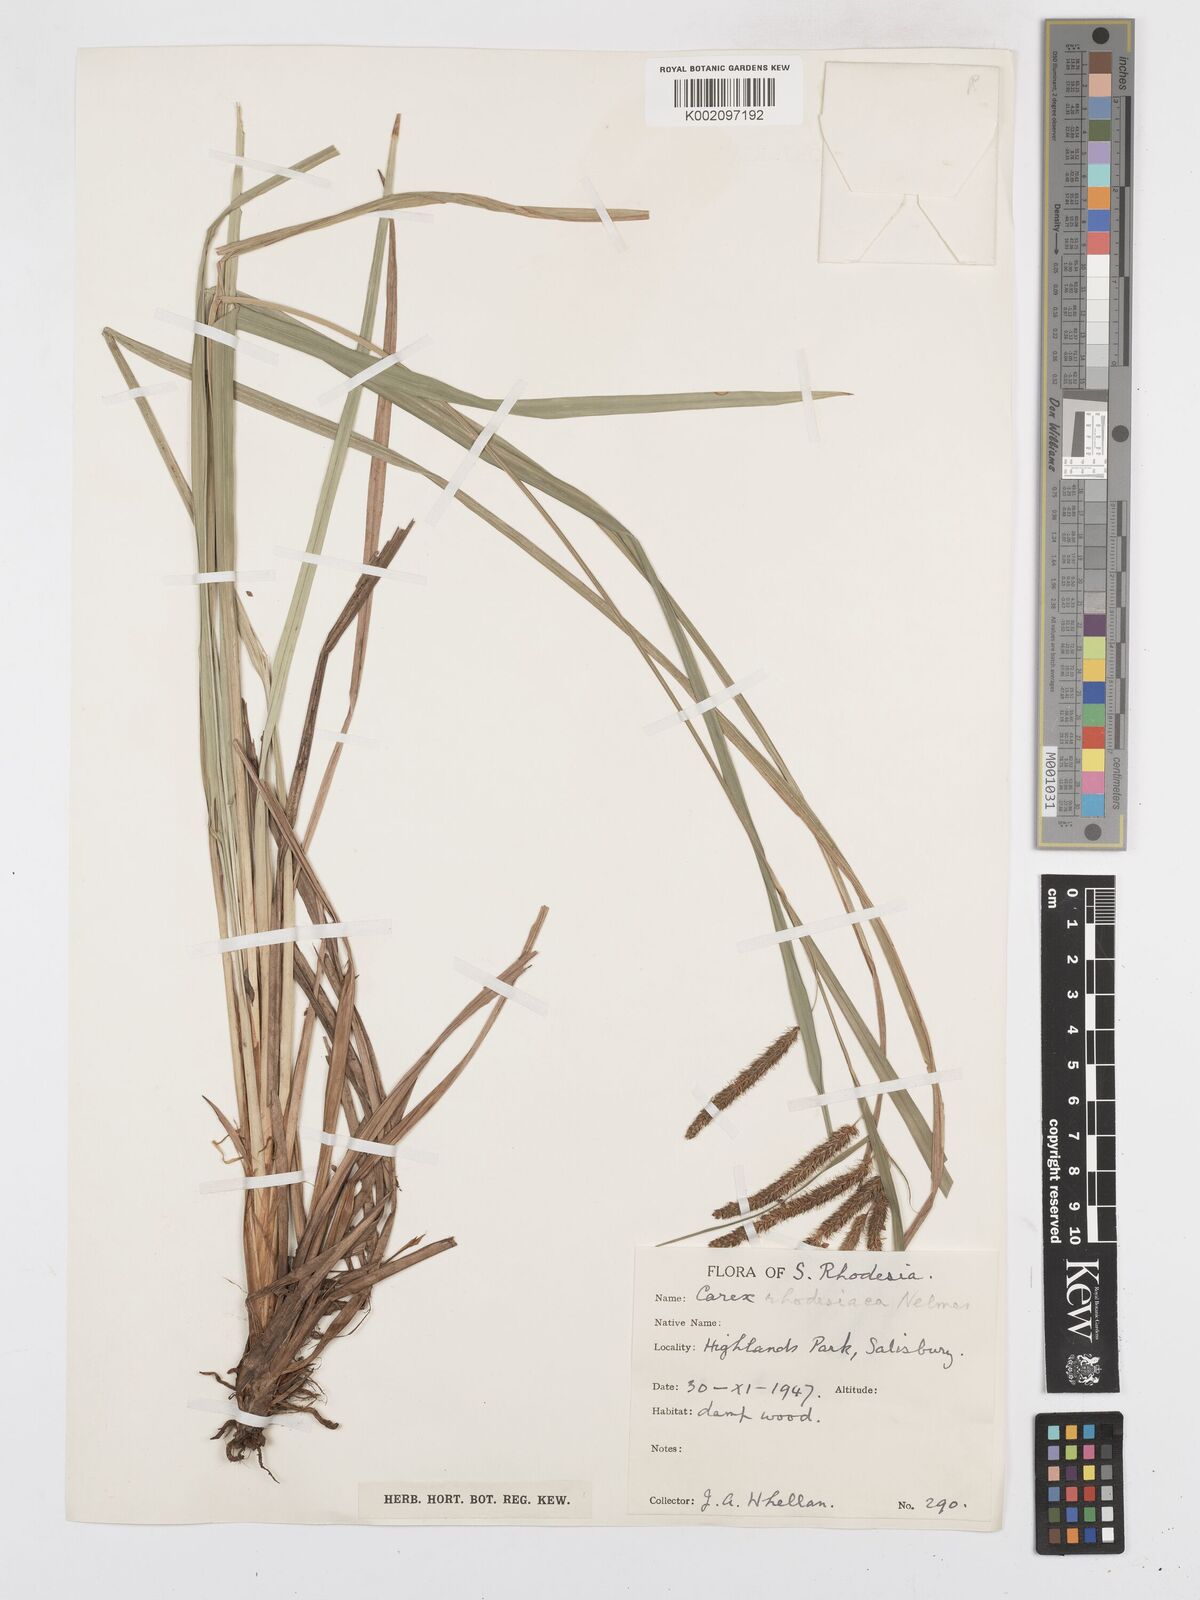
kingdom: Plantae
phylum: Tracheophyta
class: Liliopsida
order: Poales
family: Cyperaceae
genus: Carex
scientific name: Carex rhodesiaca
